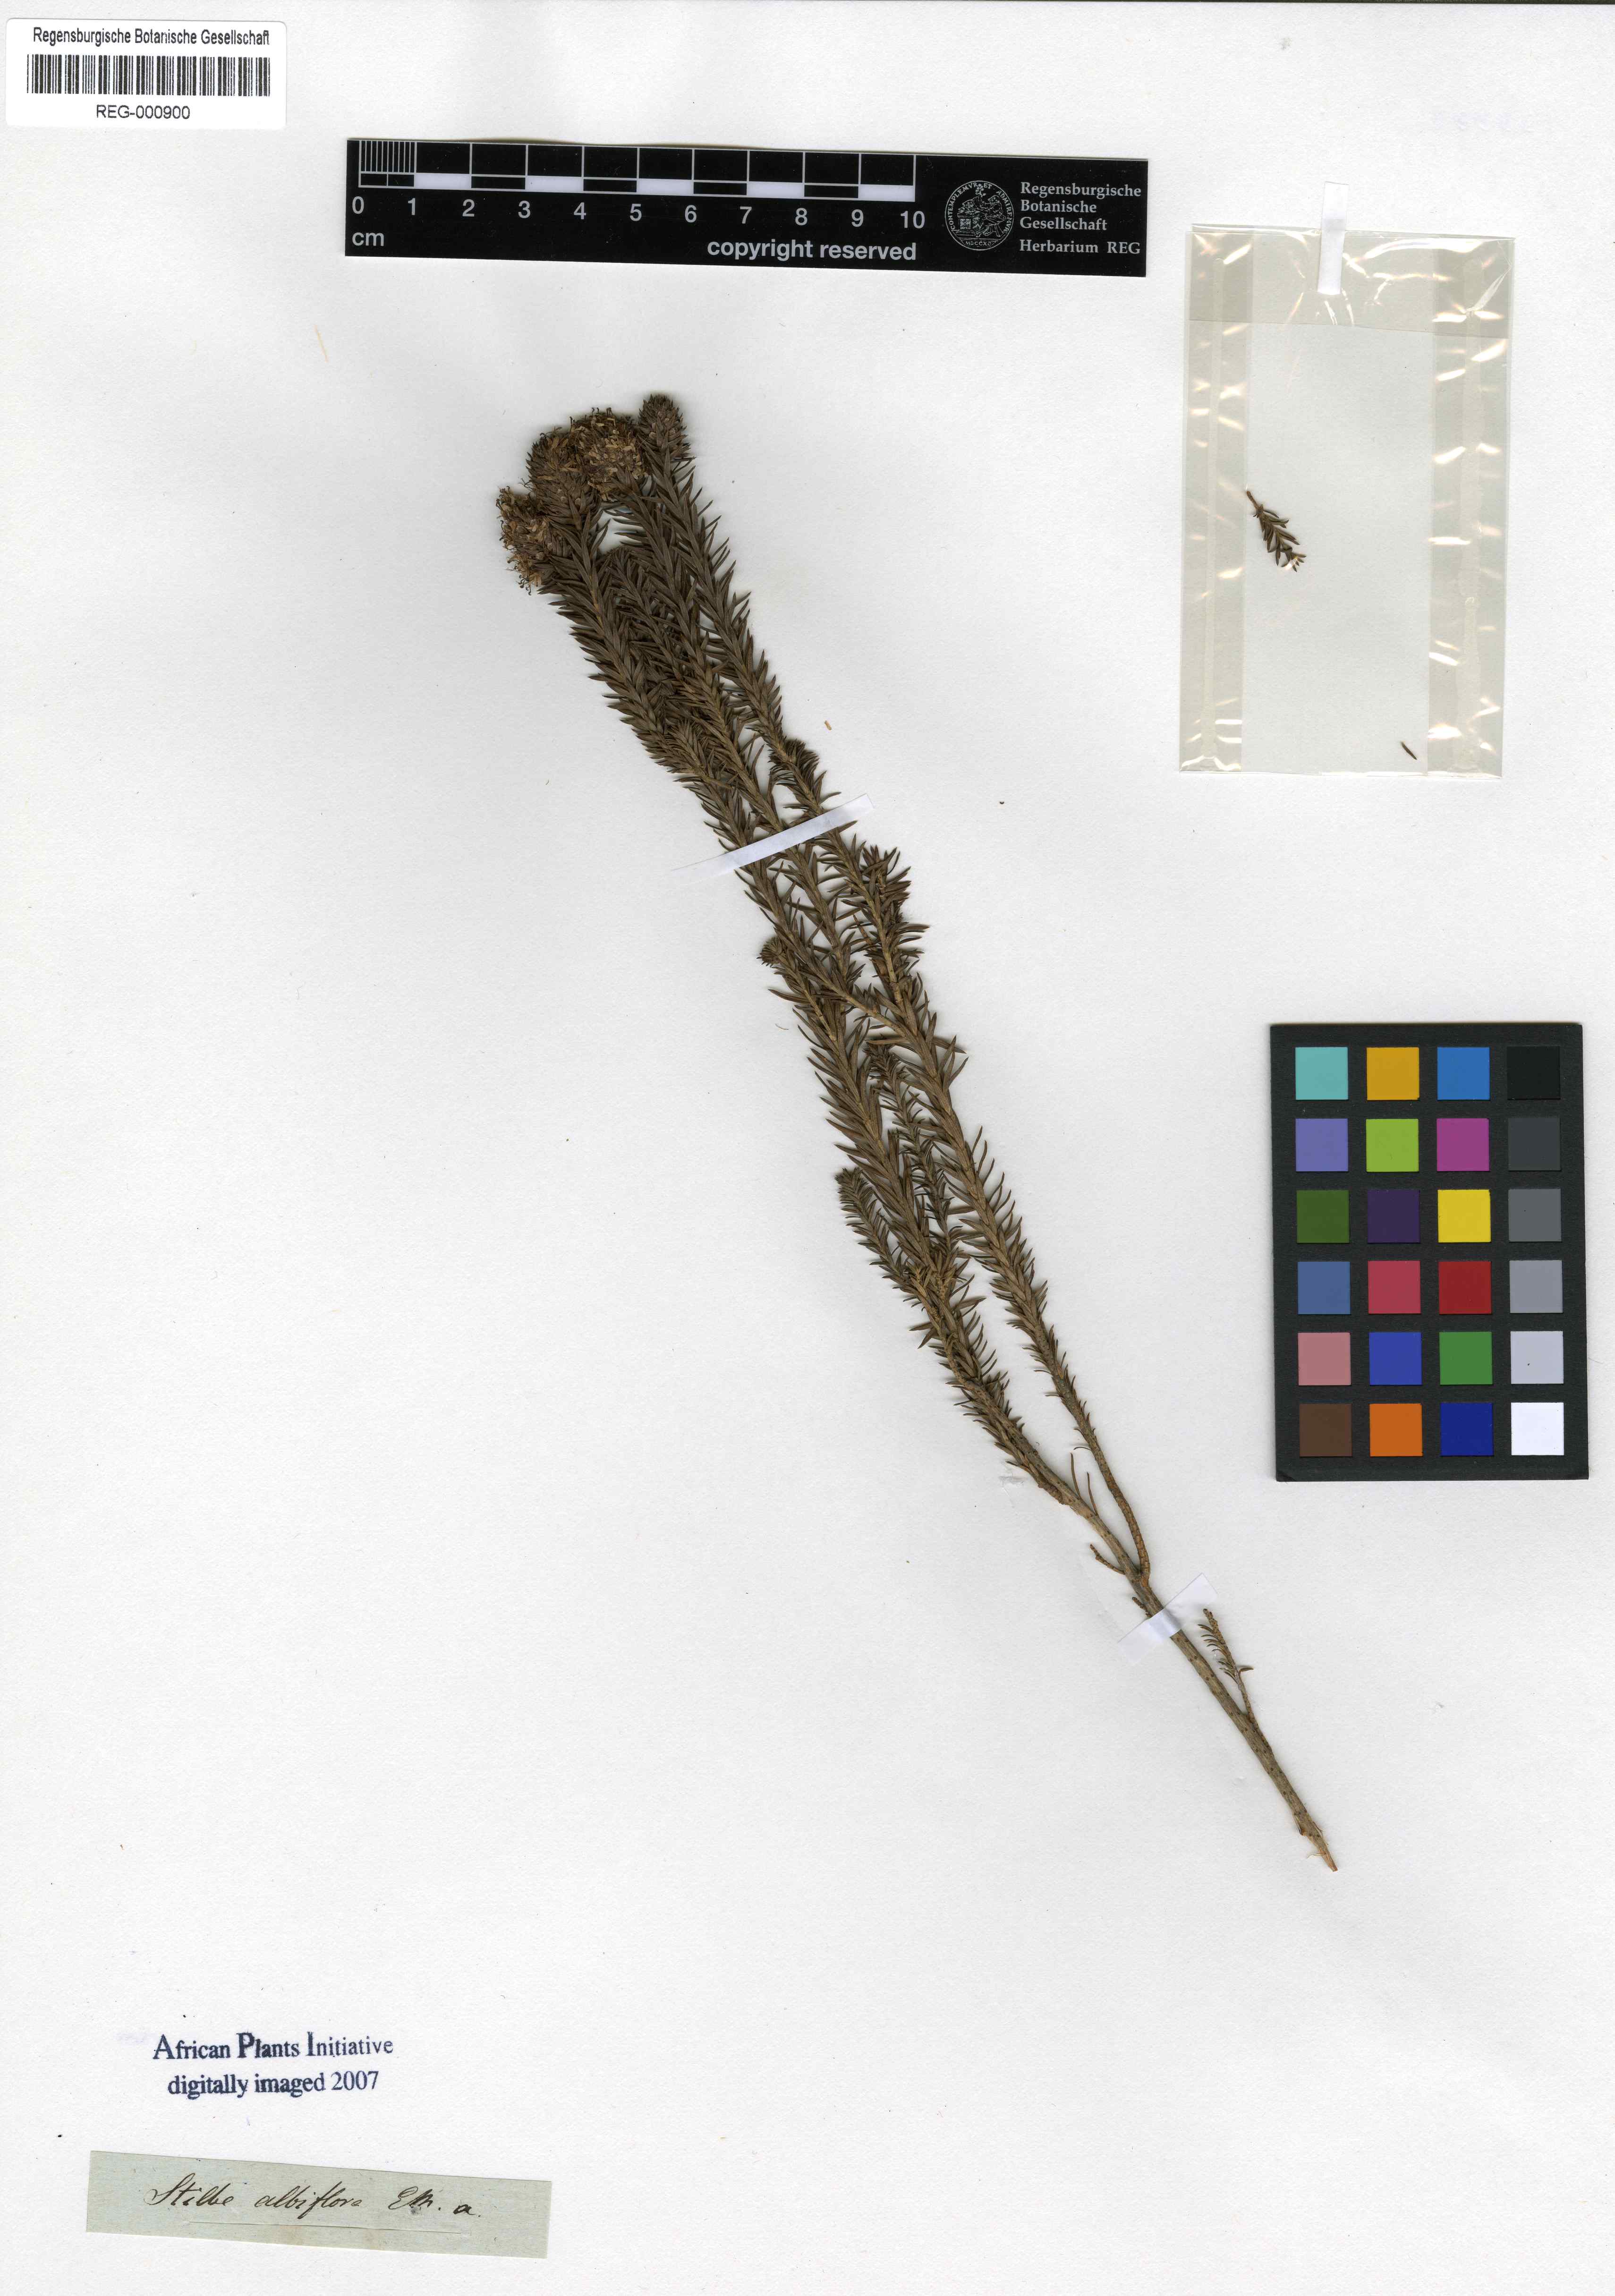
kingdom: Plantae
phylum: Tracheophyta
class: Magnoliopsida
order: Lamiales
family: Stilbaceae
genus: Stilbe
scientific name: Stilbe albiflora
